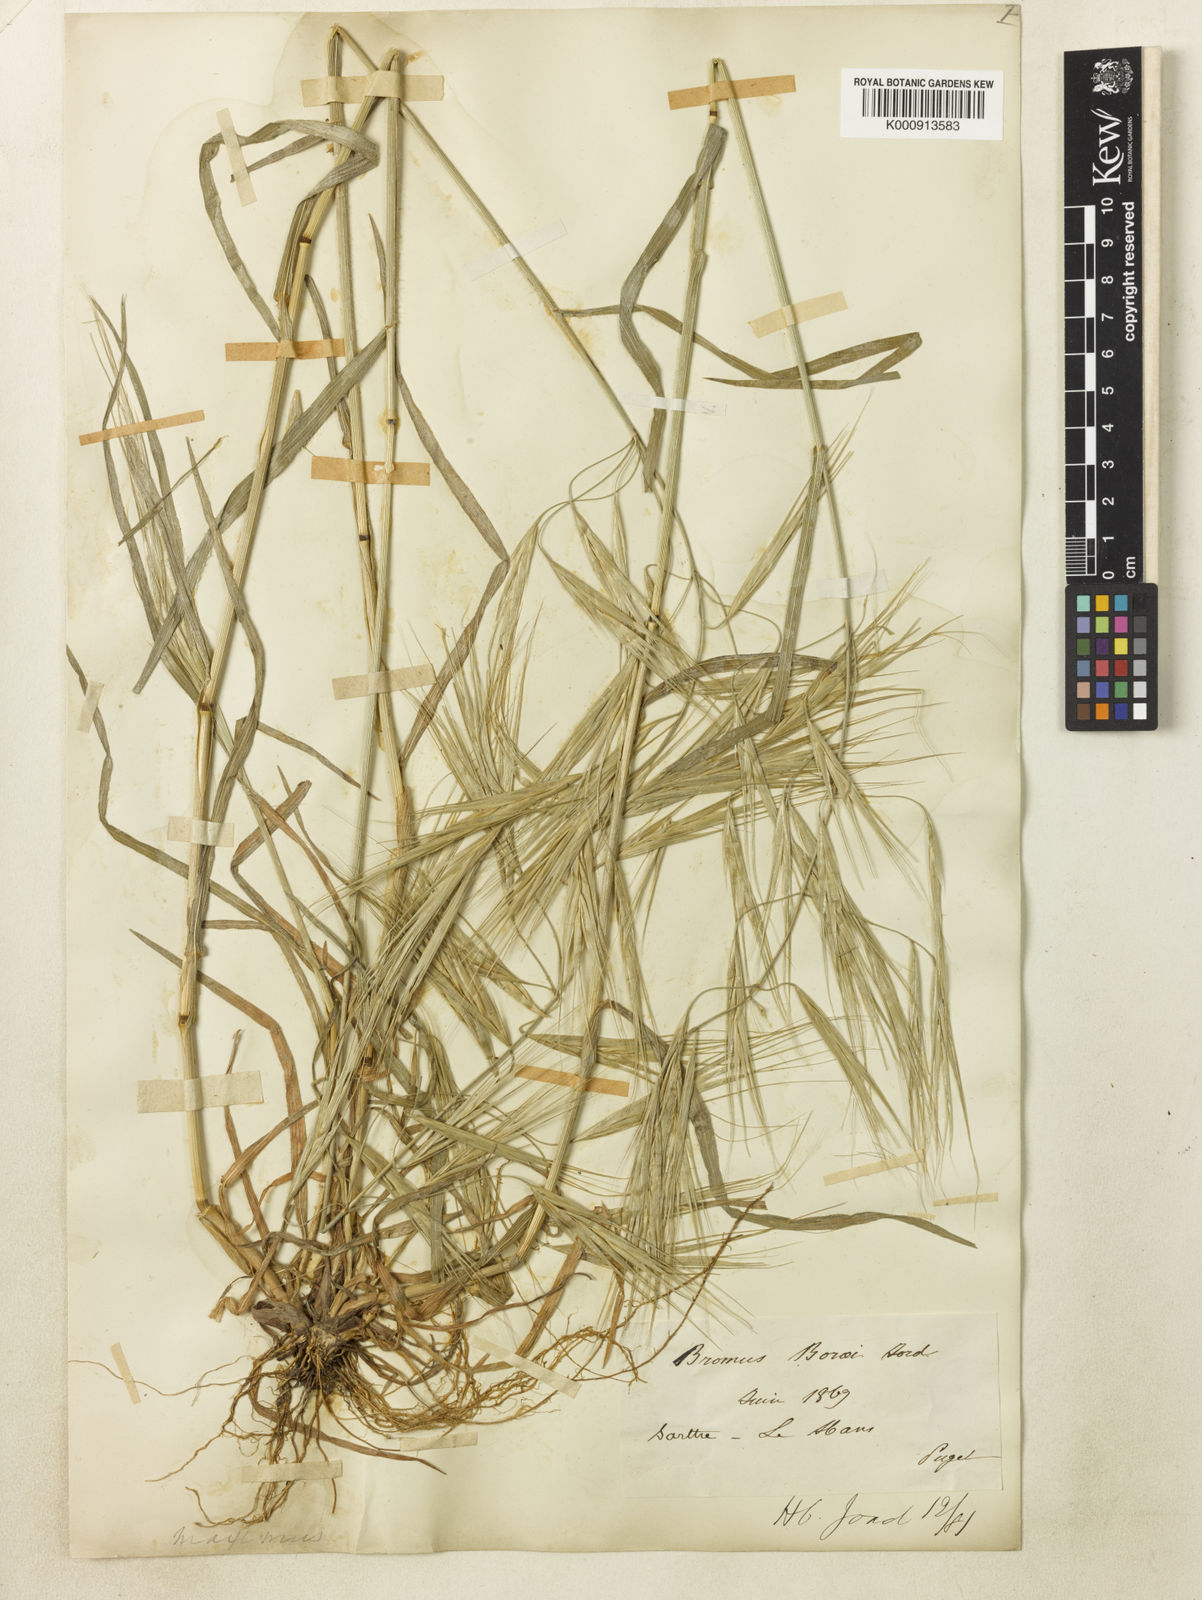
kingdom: Plantae
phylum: Tracheophyta
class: Liliopsida
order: Poales
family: Poaceae
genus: Bromus
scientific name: Bromus diandrus
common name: Ripgut brome
